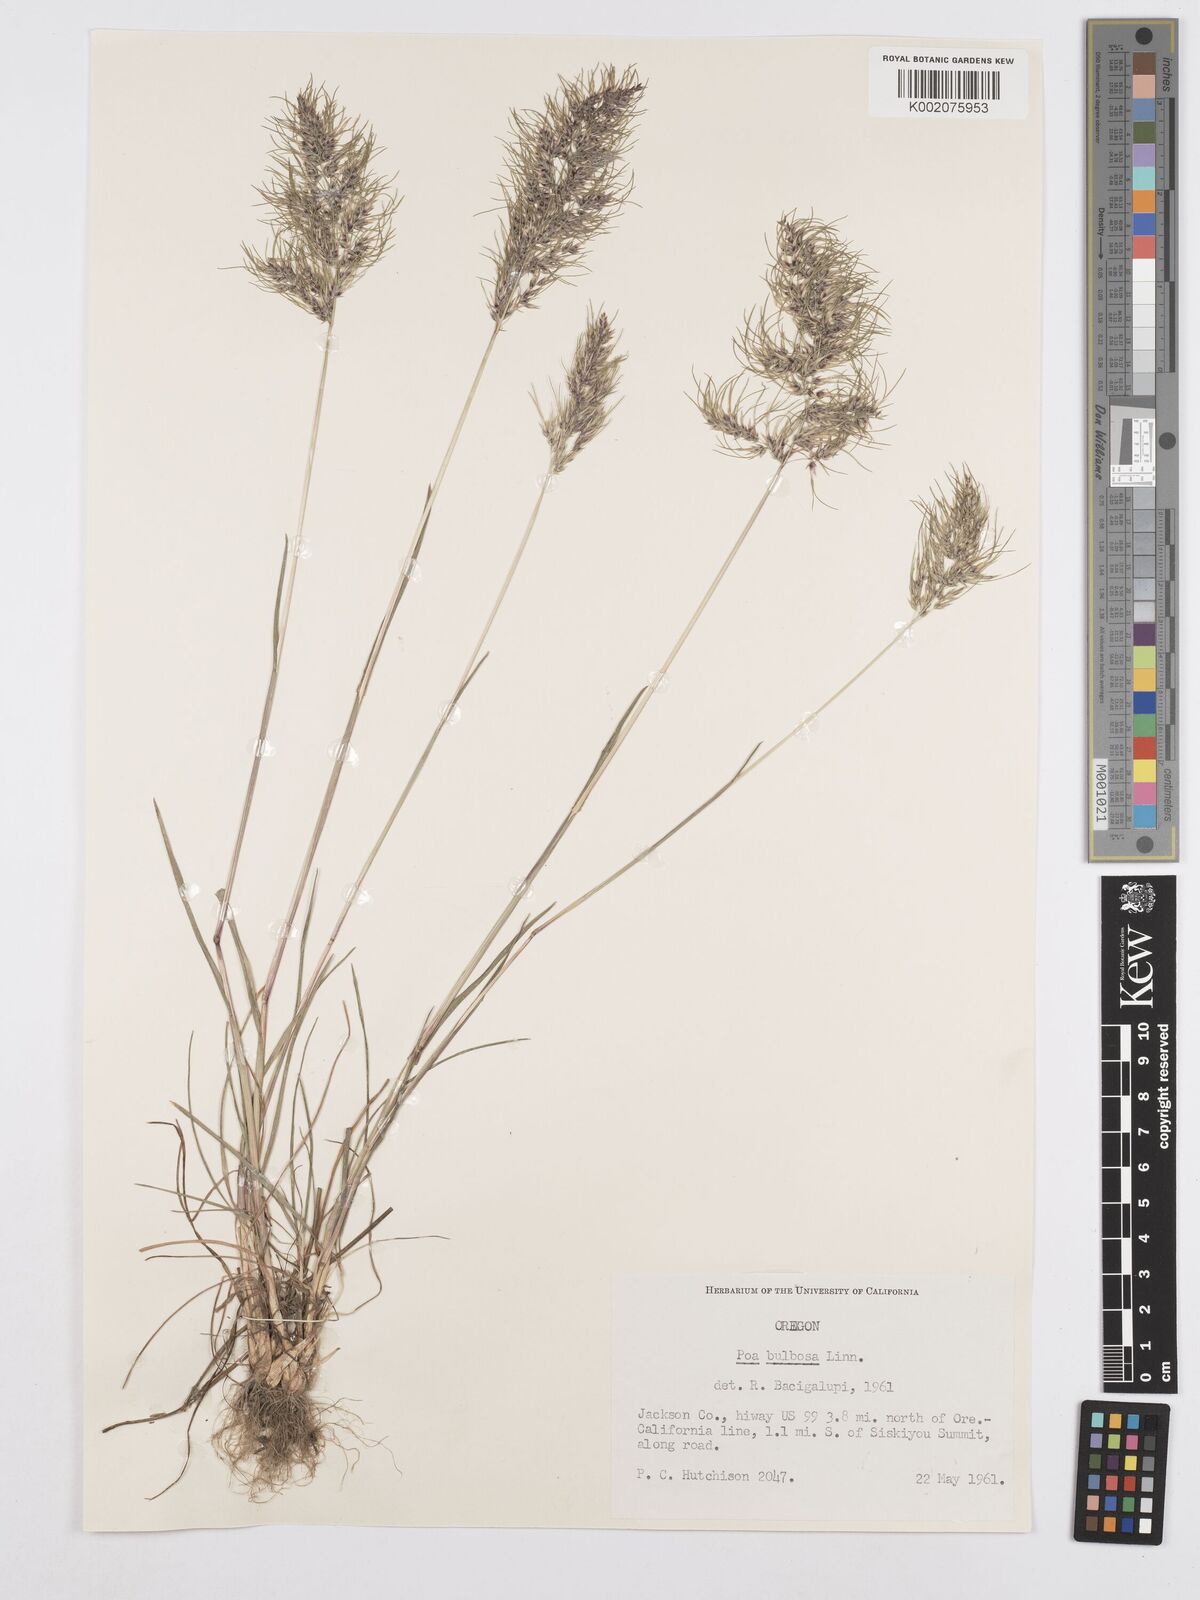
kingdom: Plantae
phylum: Tracheophyta
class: Liliopsida
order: Poales
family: Poaceae
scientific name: Poaceae
